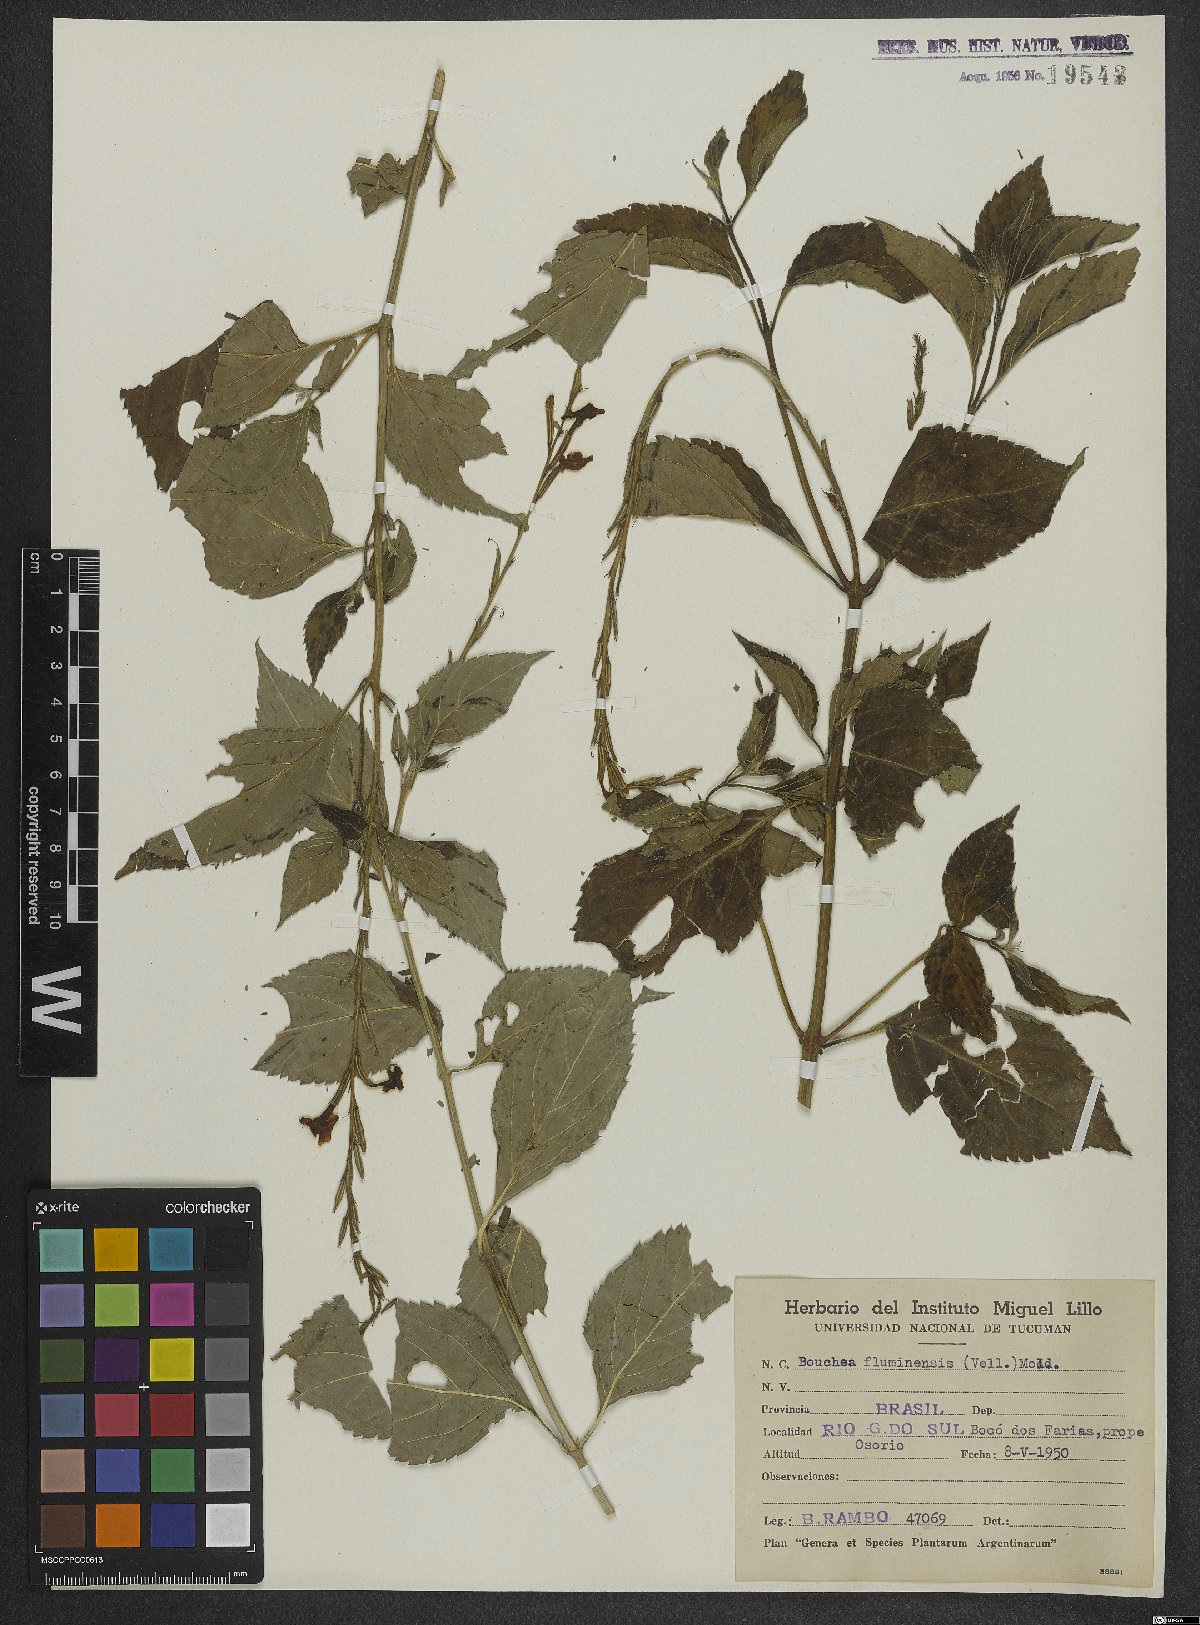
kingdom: Plantae
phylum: Tracheophyta
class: Magnoliopsida
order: Lamiales
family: Verbenaceae
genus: Bouchea
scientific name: Bouchea pseudogervao
